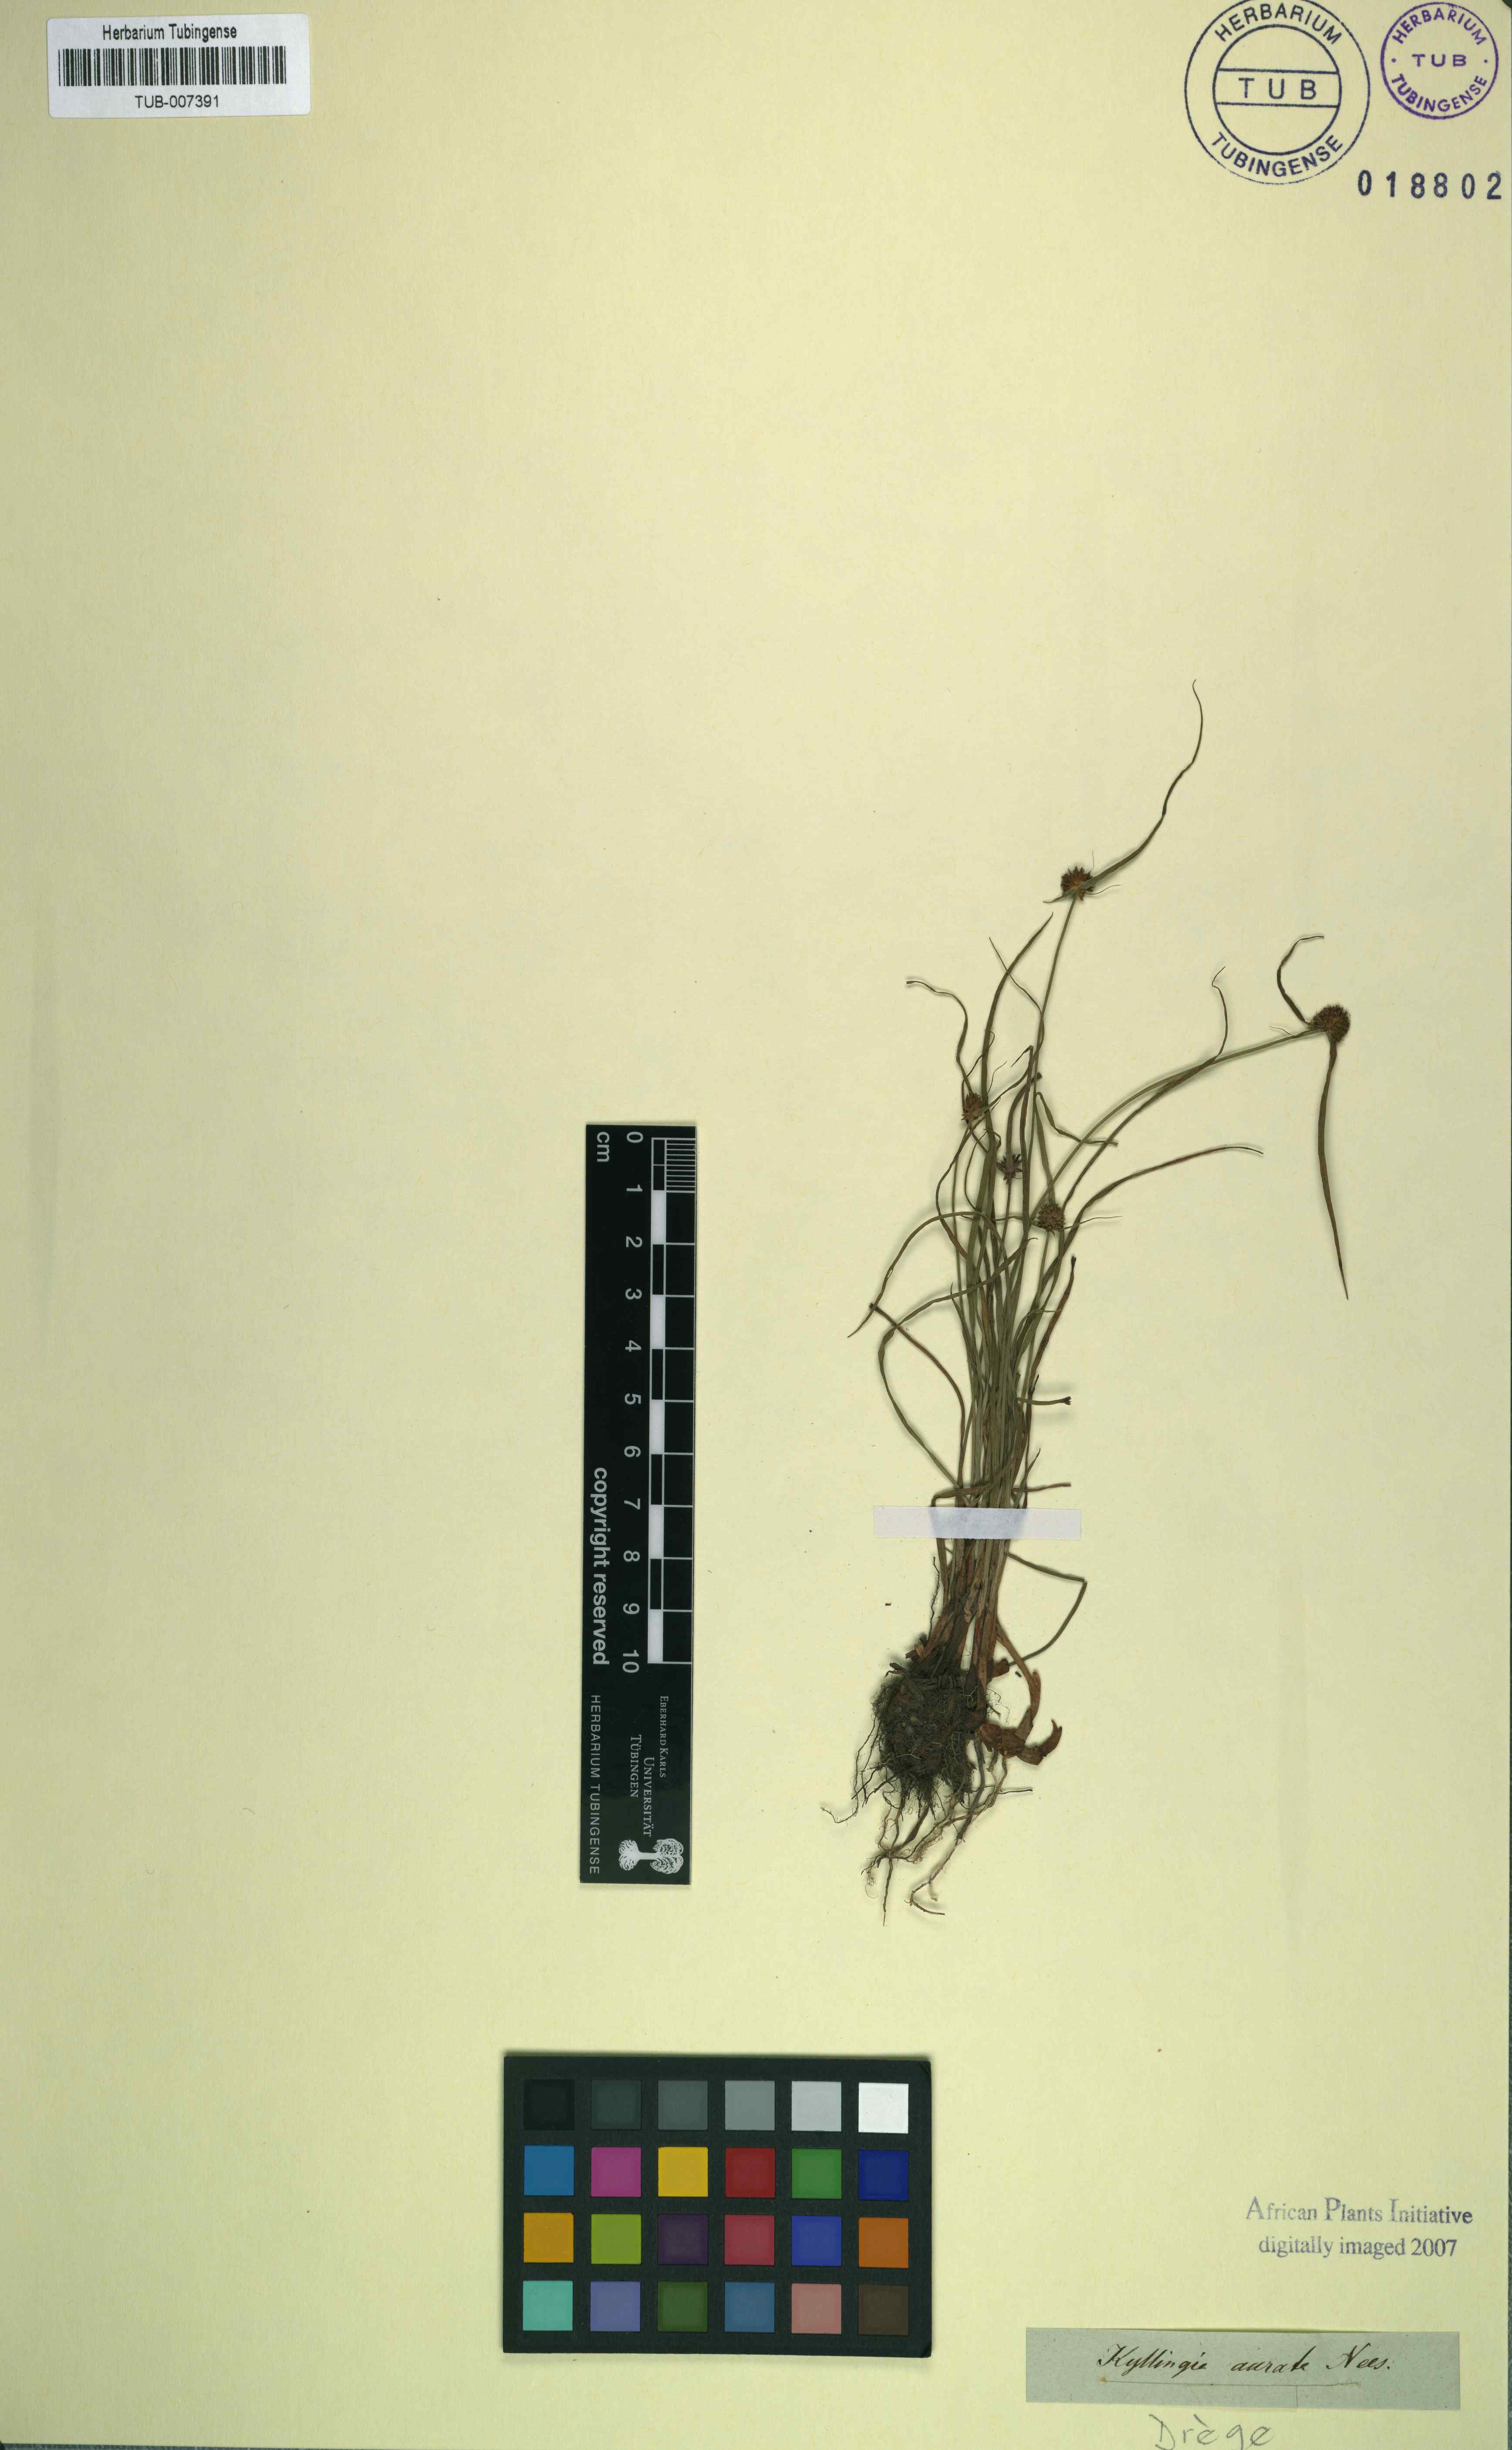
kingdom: Plantae
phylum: Tracheophyta
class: Liliopsida
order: Poales
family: Cyperaceae
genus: Cyperus
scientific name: Cyperus auratus
